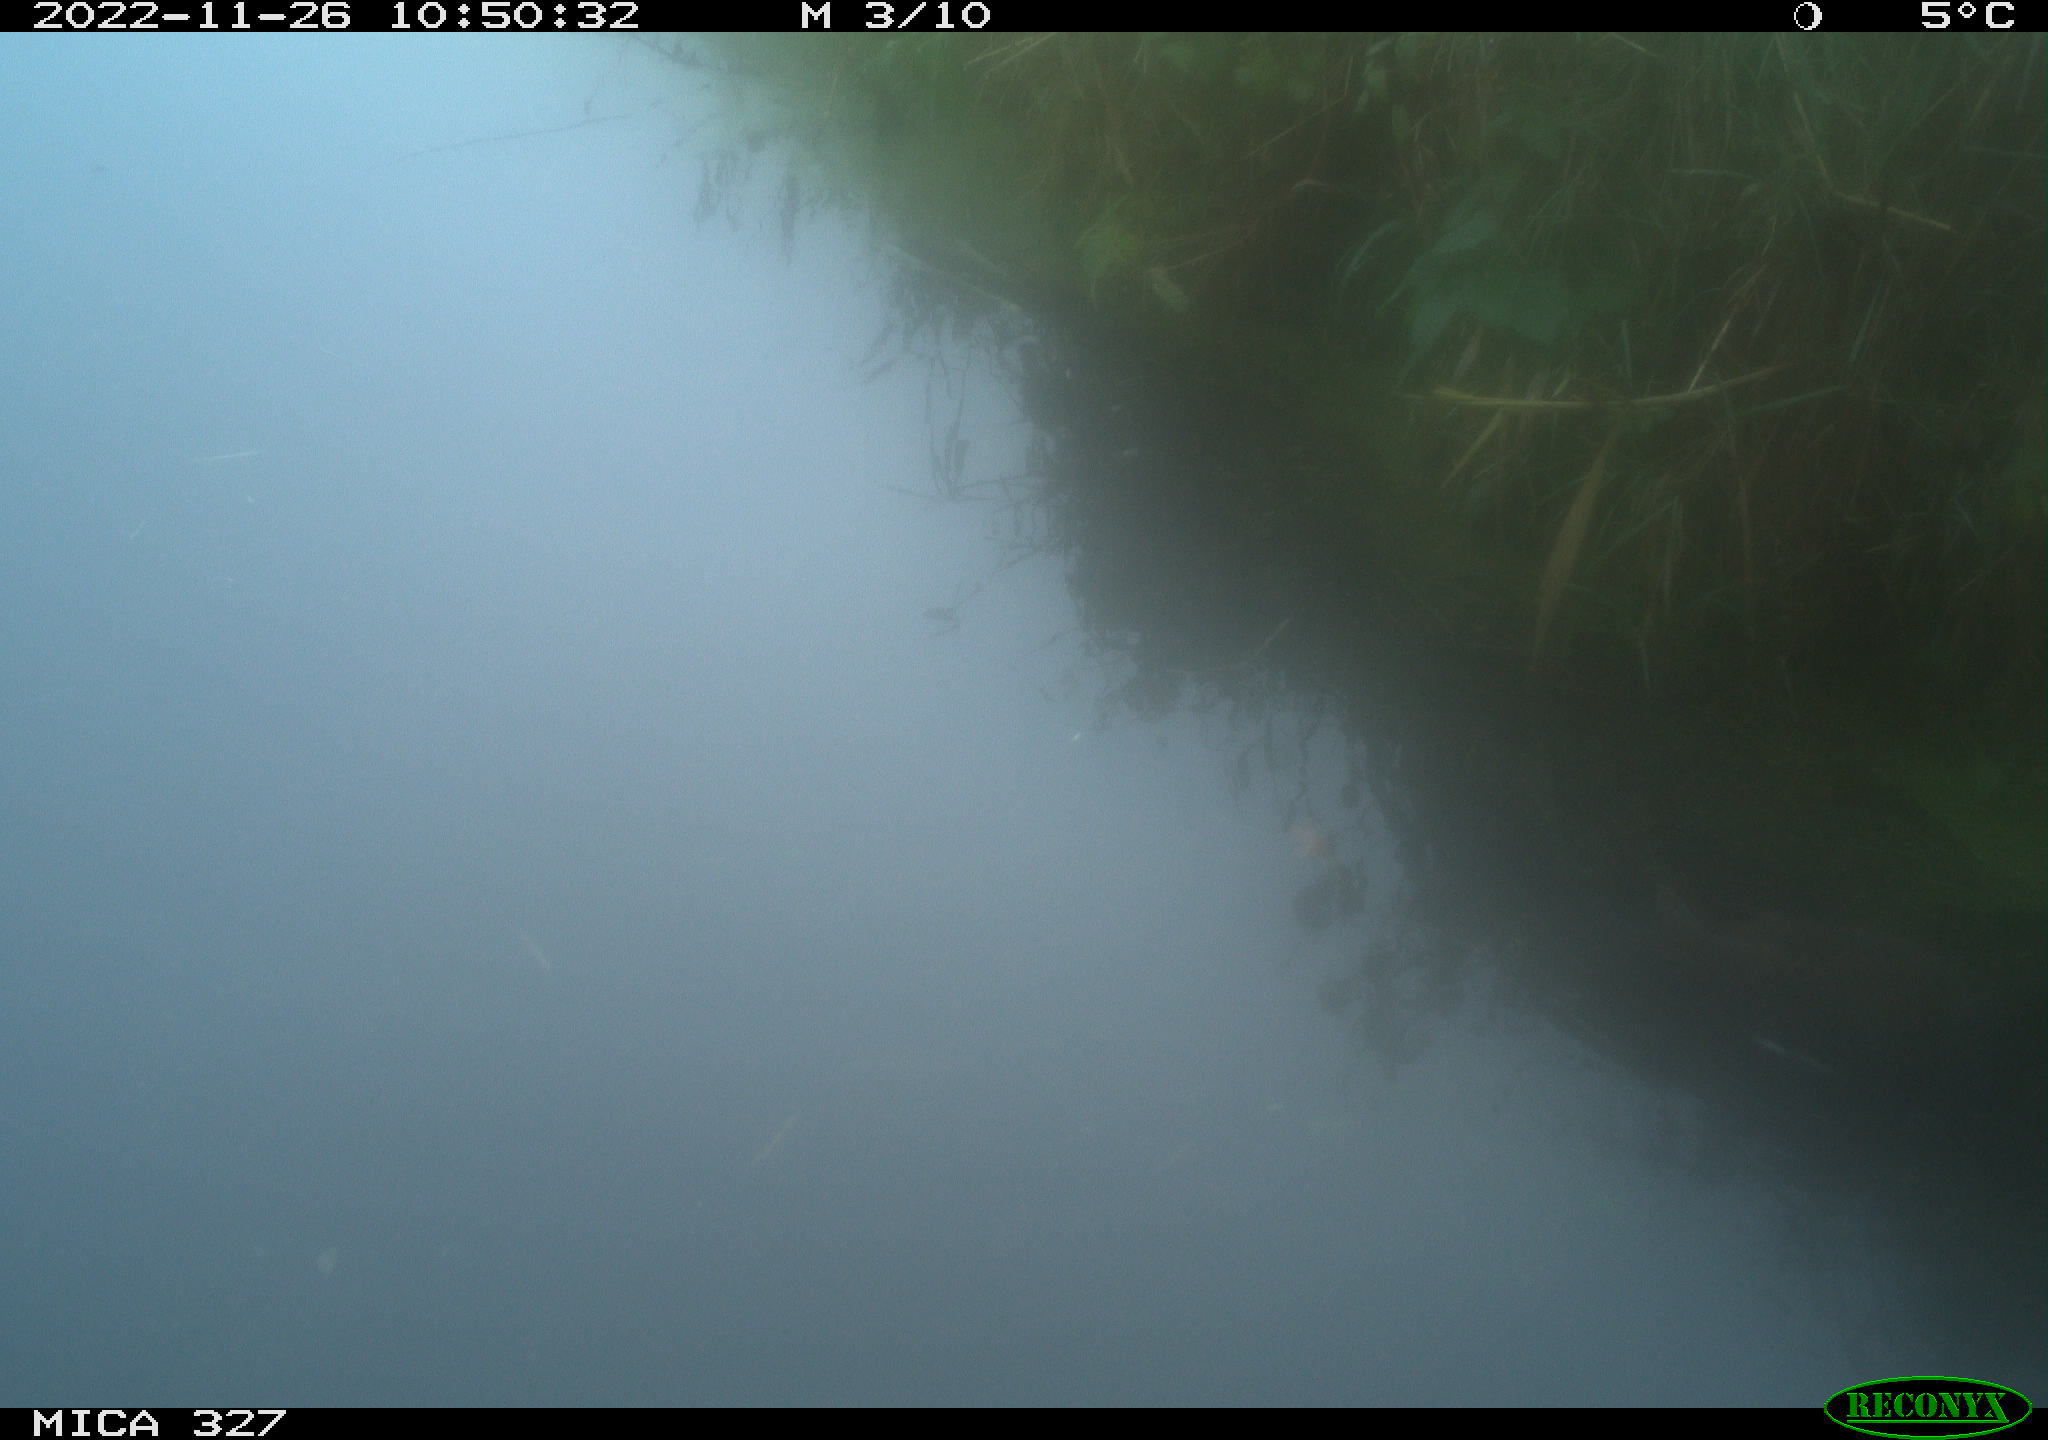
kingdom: Animalia
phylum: Chordata
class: Aves
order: Gruiformes
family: Rallidae
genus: Gallinula
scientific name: Gallinula chloropus
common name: Common moorhen
